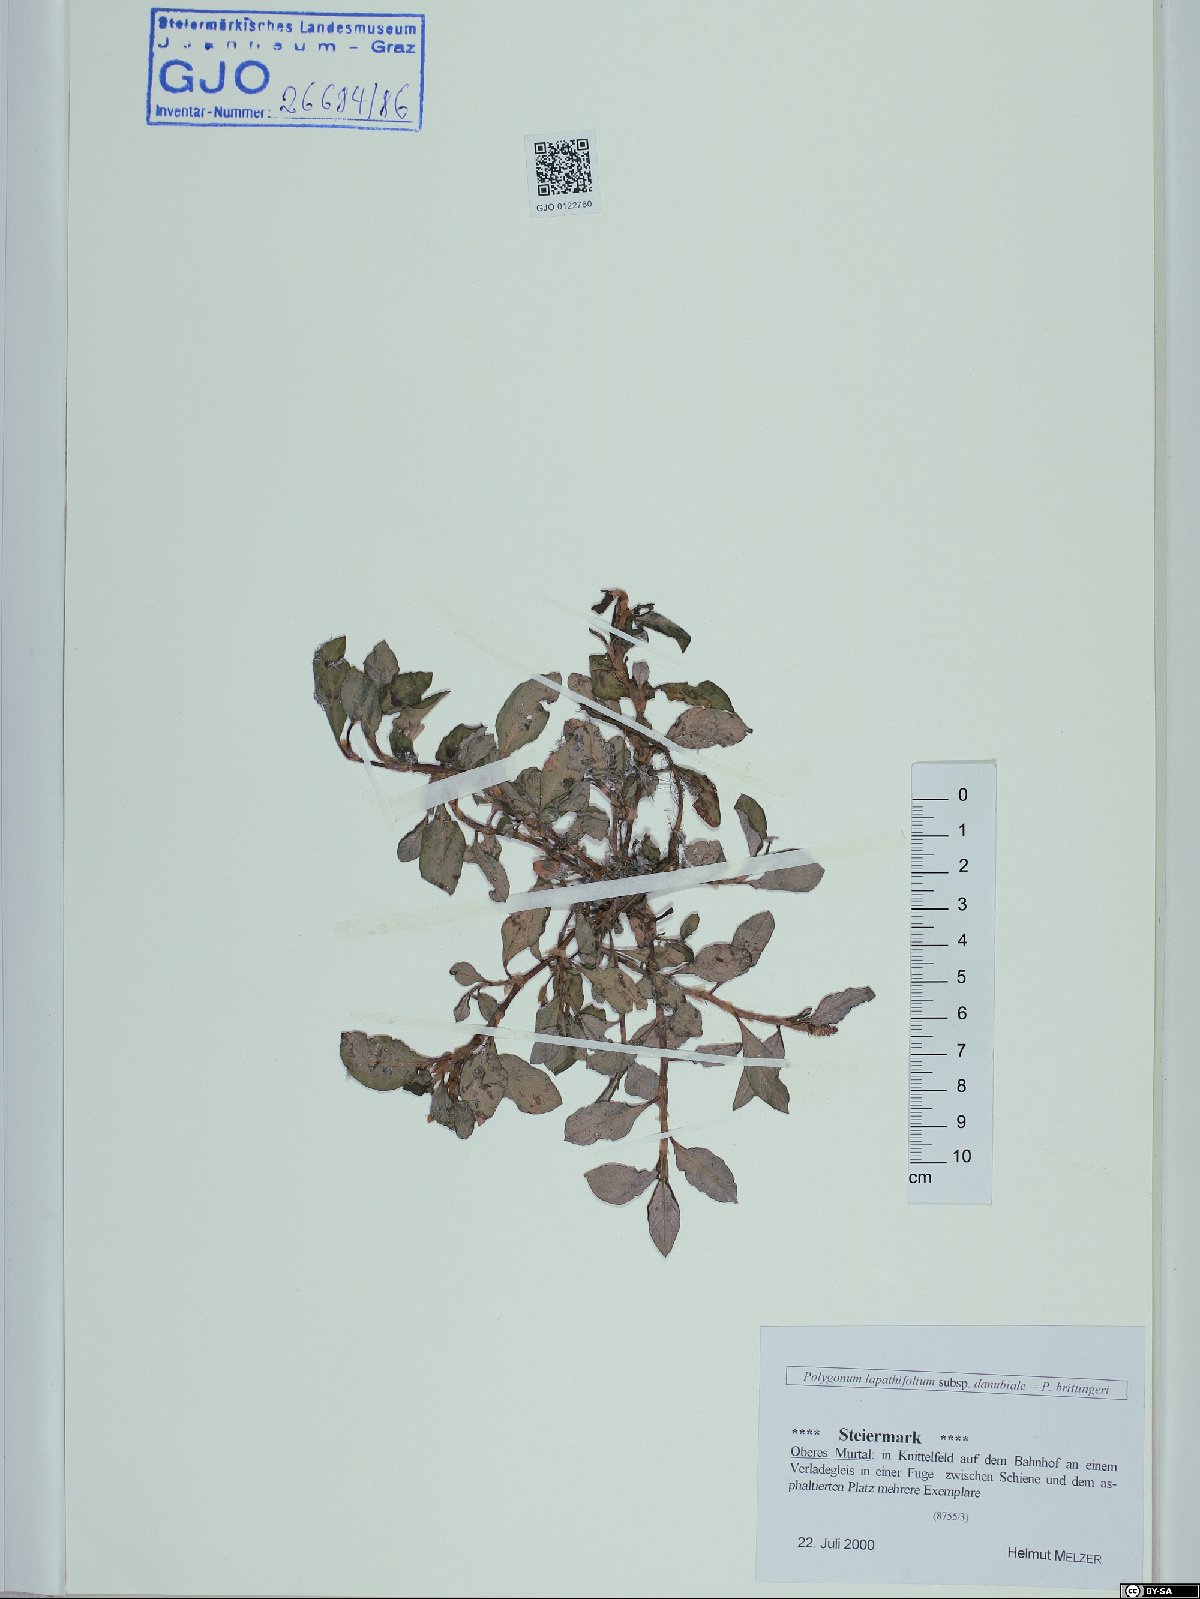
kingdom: Plantae
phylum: Tracheophyta
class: Magnoliopsida
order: Caryophyllales
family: Polygonaceae
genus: Persicaria
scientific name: Persicaria lapathifolia
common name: Curlytop knotweed
